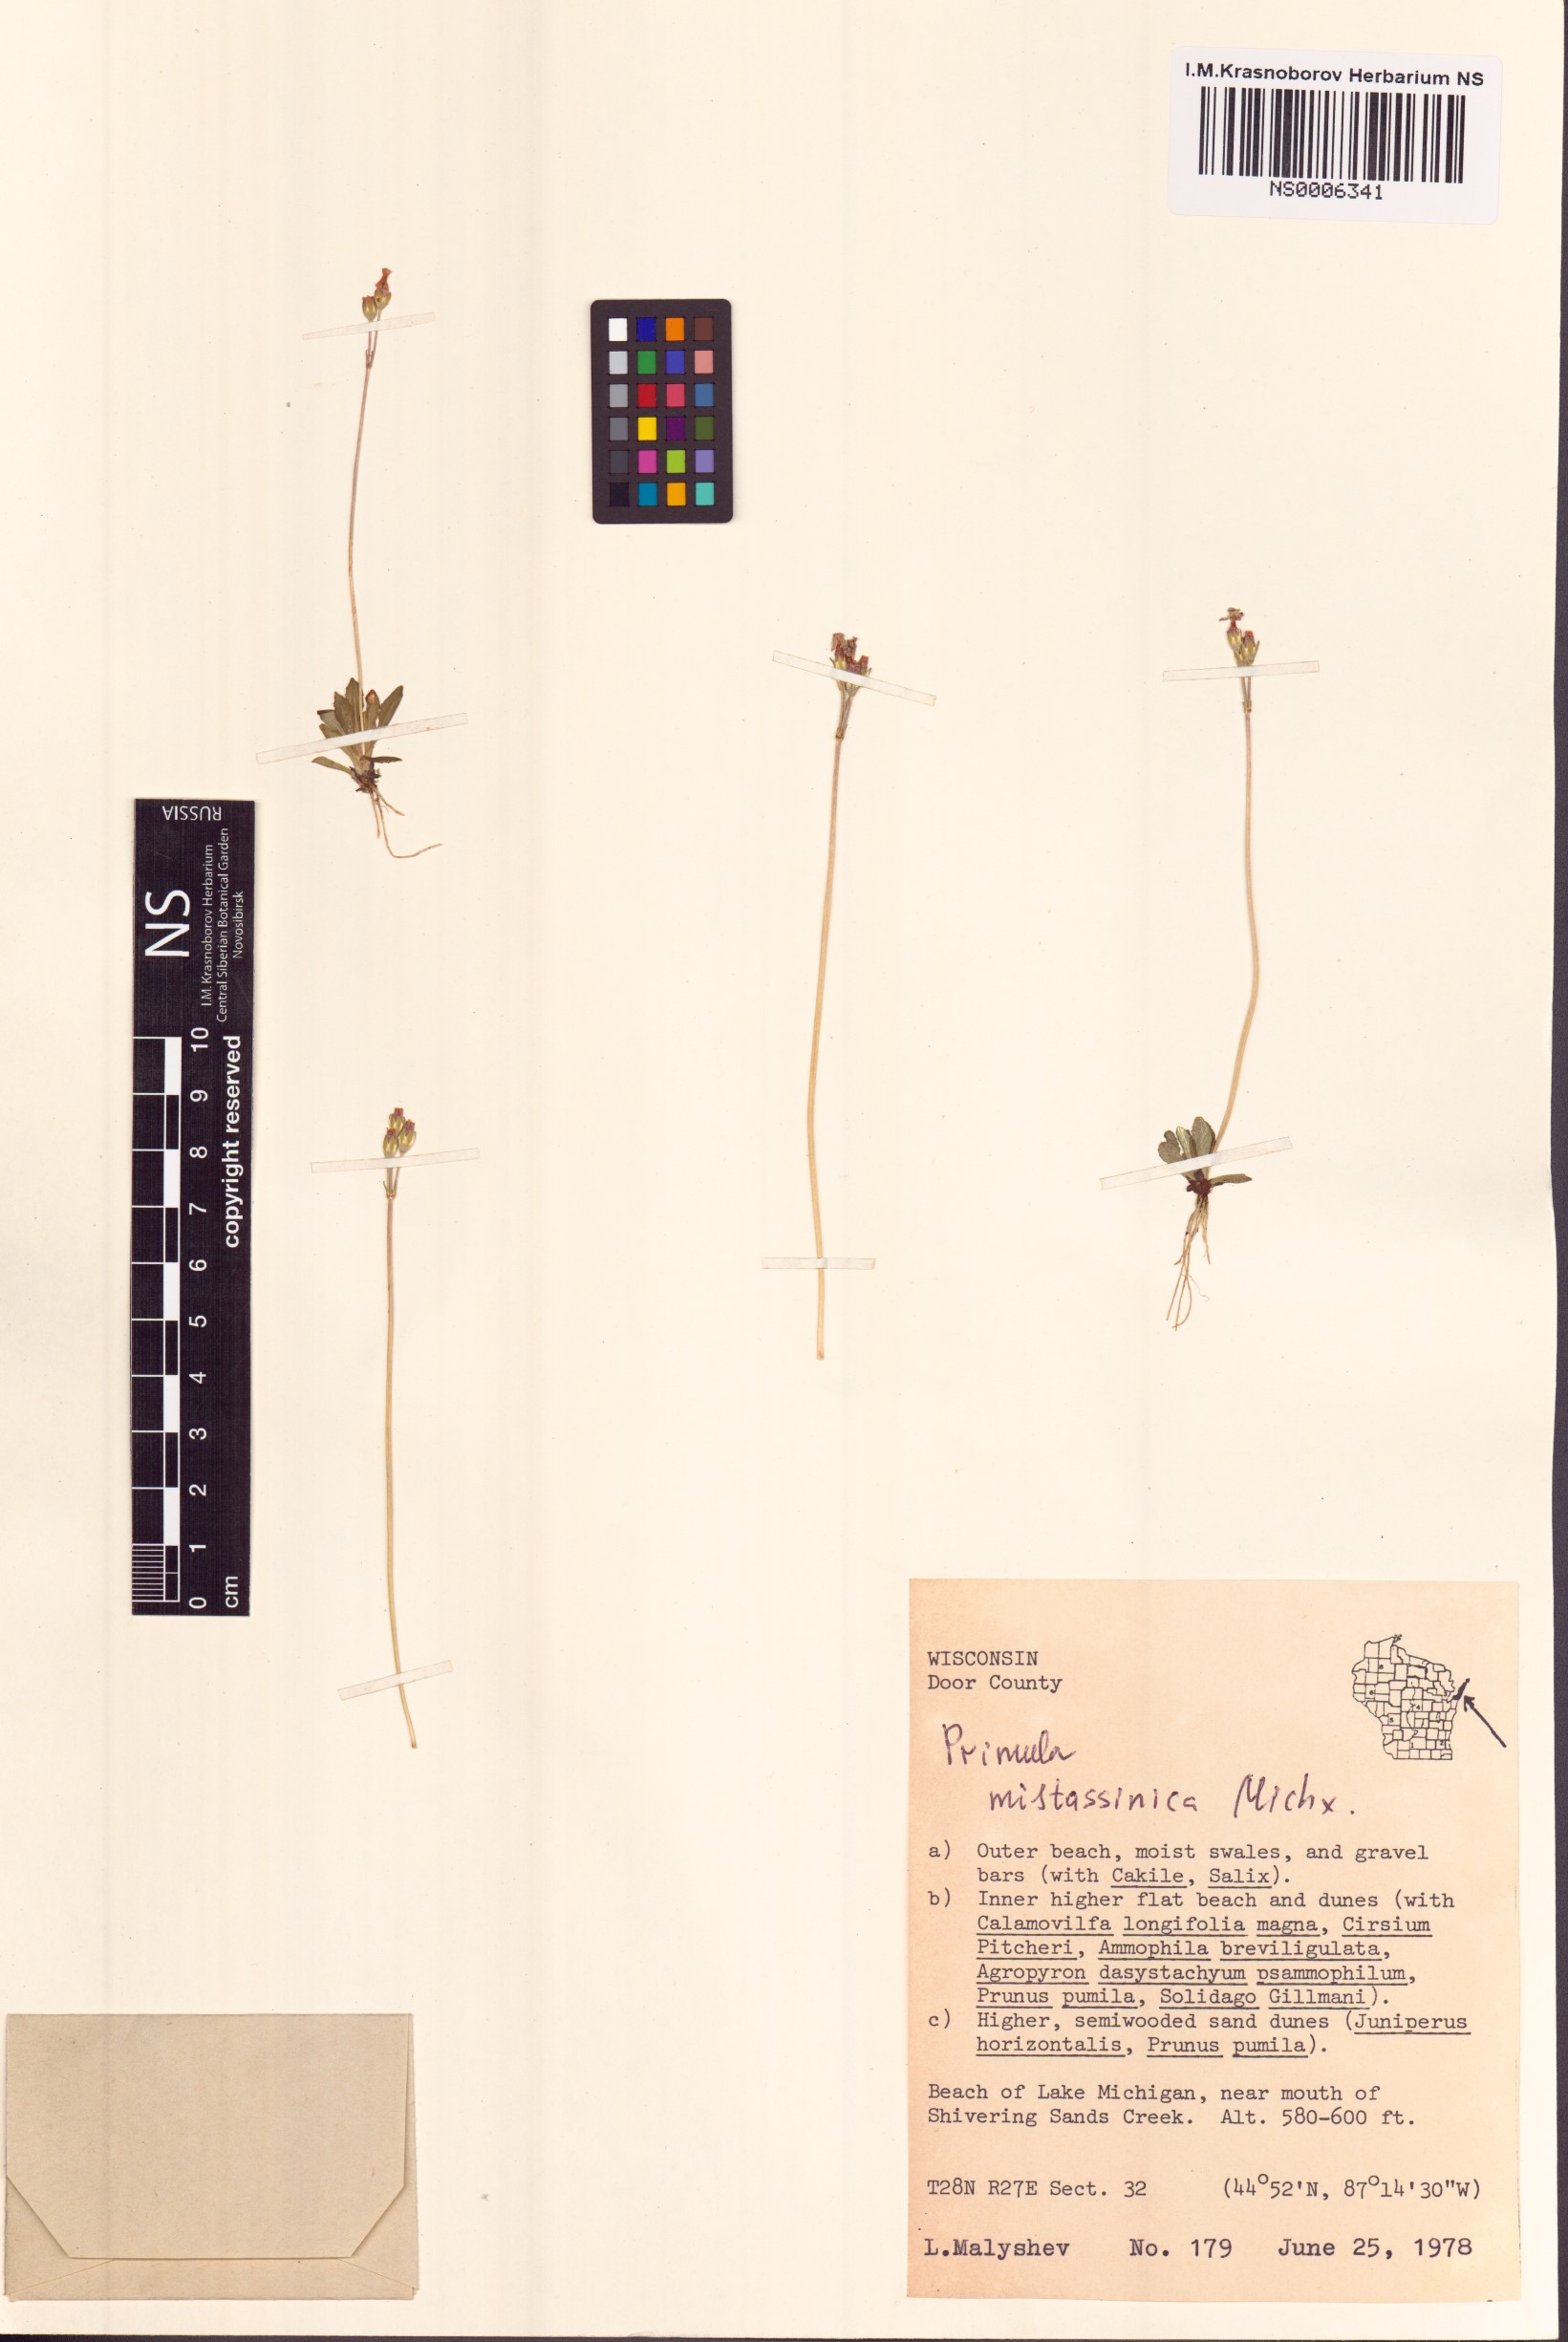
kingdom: Plantae
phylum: Tracheophyta
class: Magnoliopsida
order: Ericales
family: Primulaceae
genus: Primula
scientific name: Primula mistassinica
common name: Bird's-eye primrose
